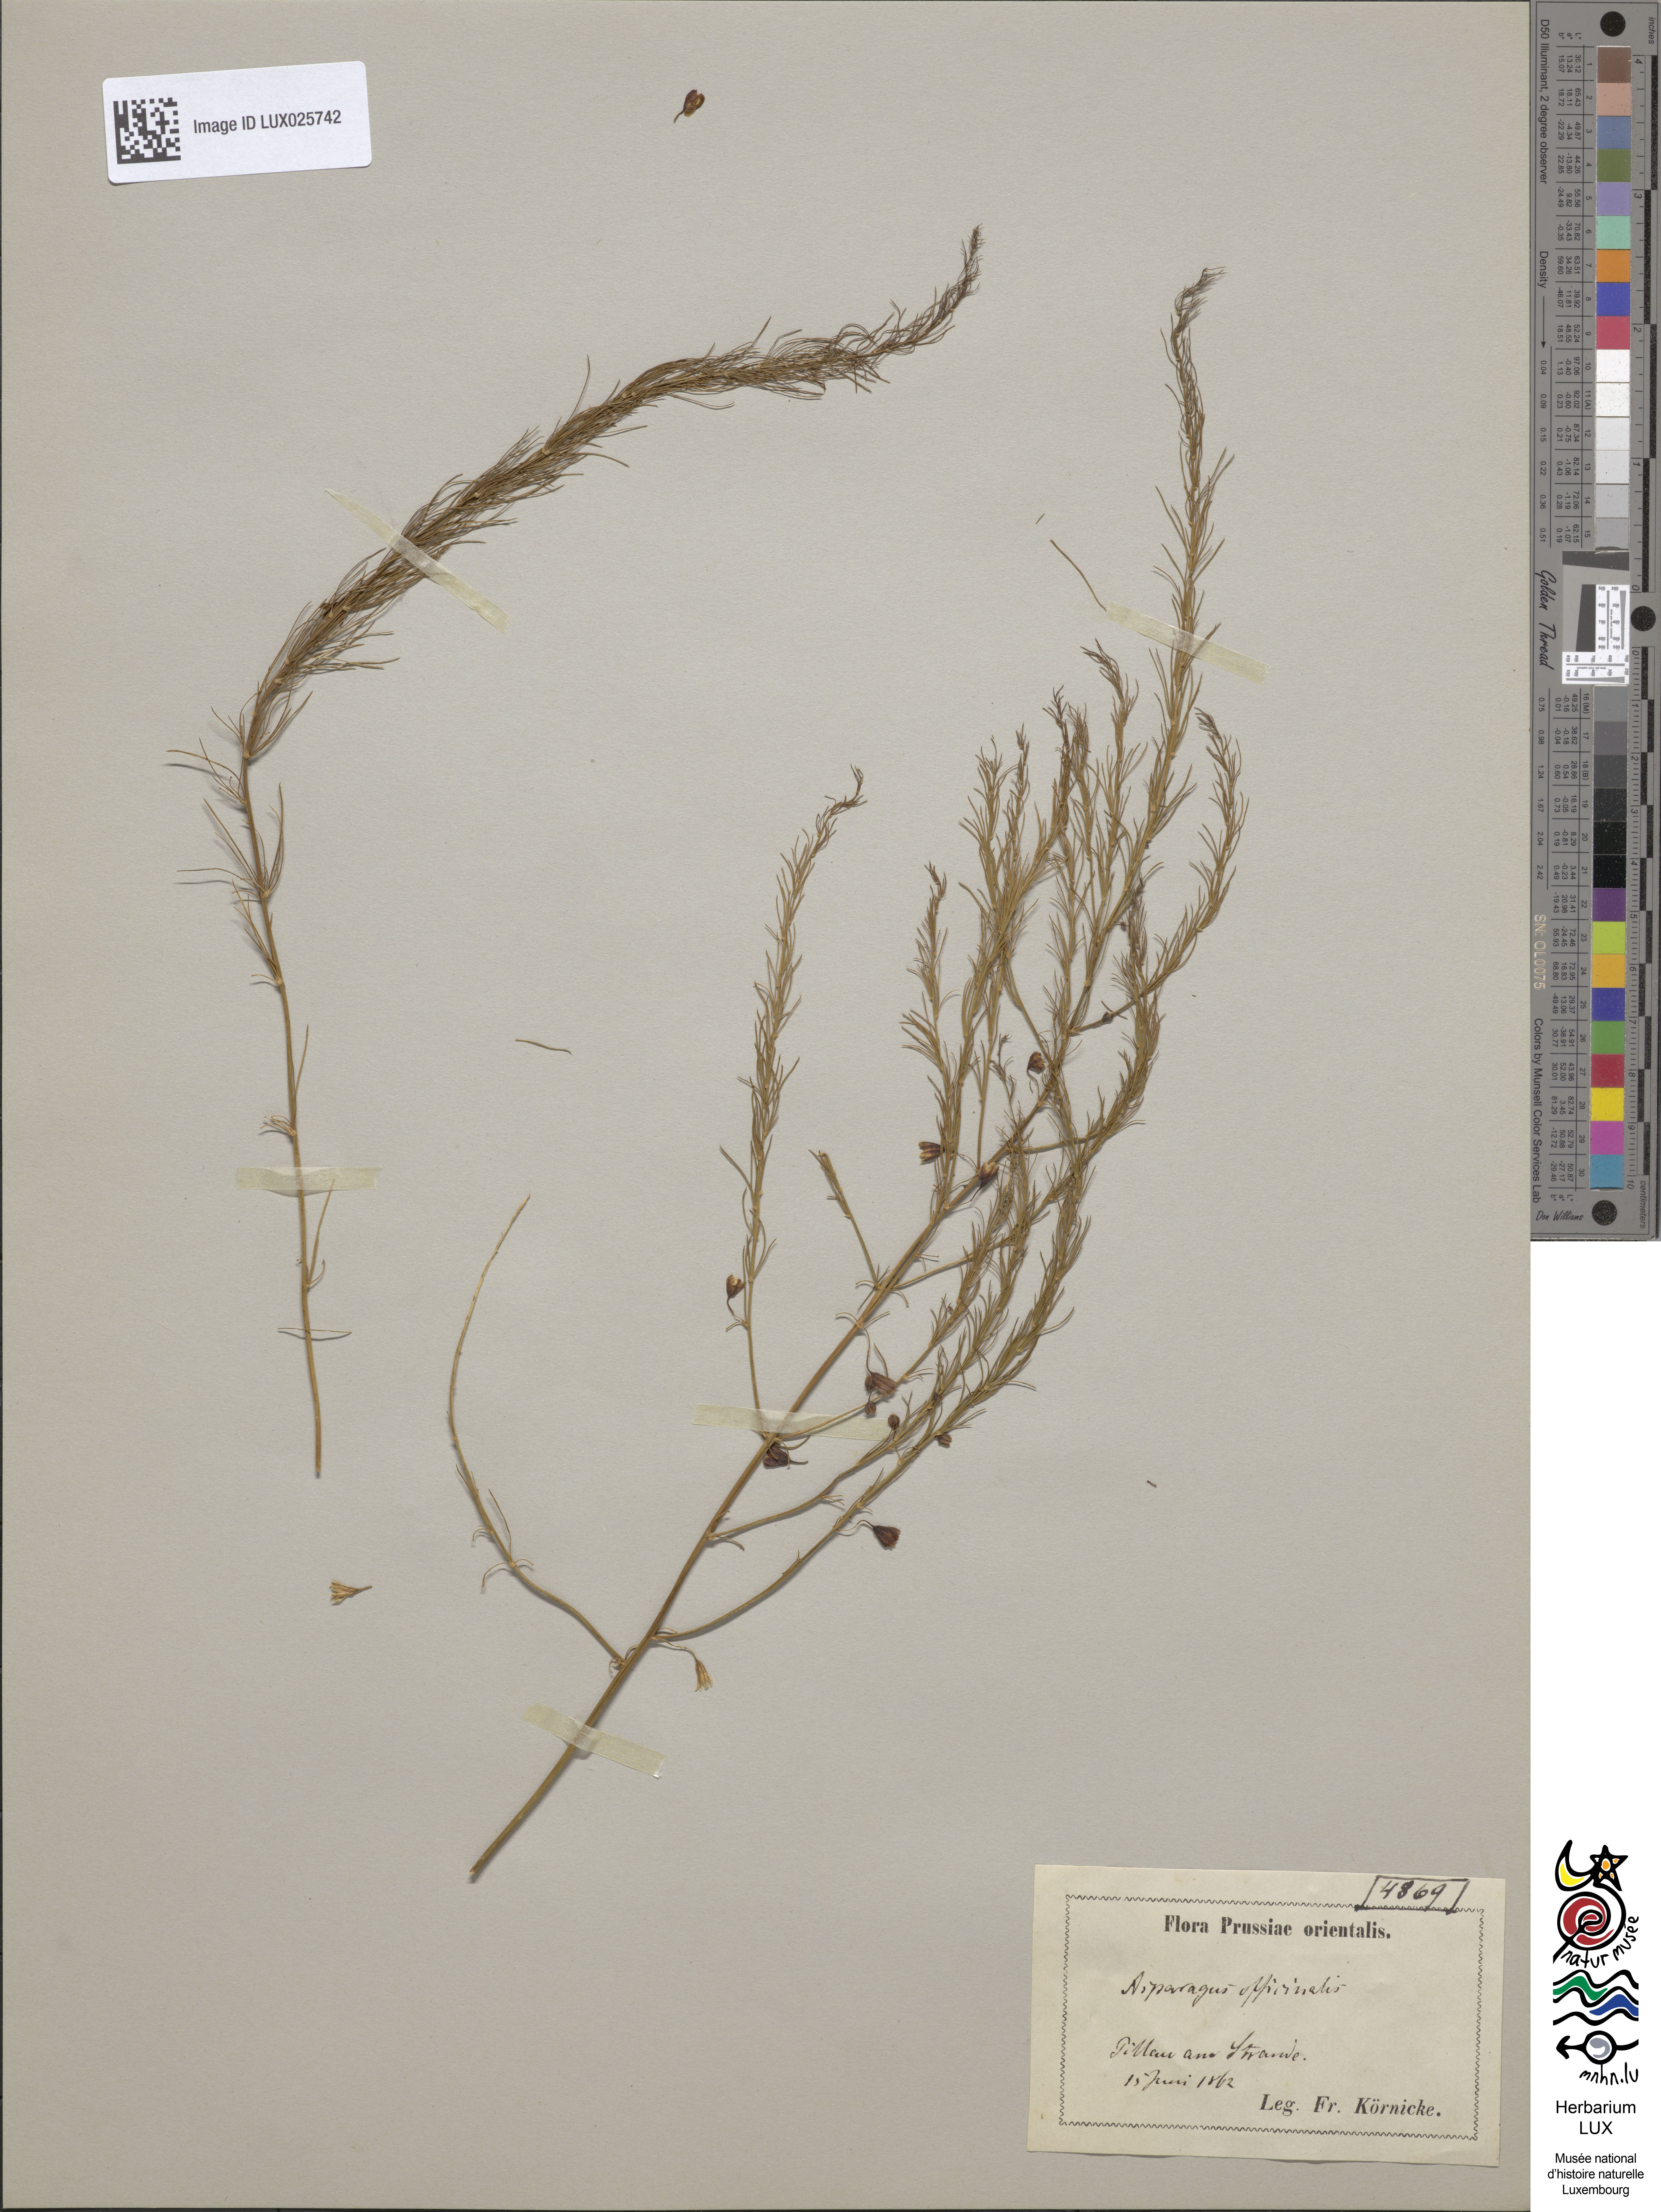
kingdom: Plantae
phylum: Tracheophyta
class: Liliopsida
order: Asparagales
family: Asparagaceae
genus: Asparagus
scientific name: Asparagus officinalis
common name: Garden asparagus
